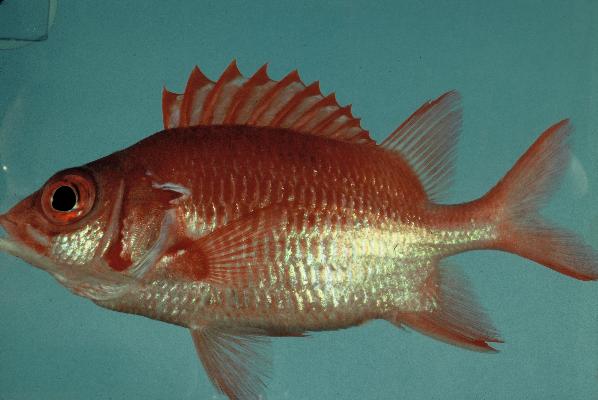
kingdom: Animalia
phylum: Chordata
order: Beryciformes
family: Holocentridae
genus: Sargocentron
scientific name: Sargocentron caudimaculatum
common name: Fanfin soldier
